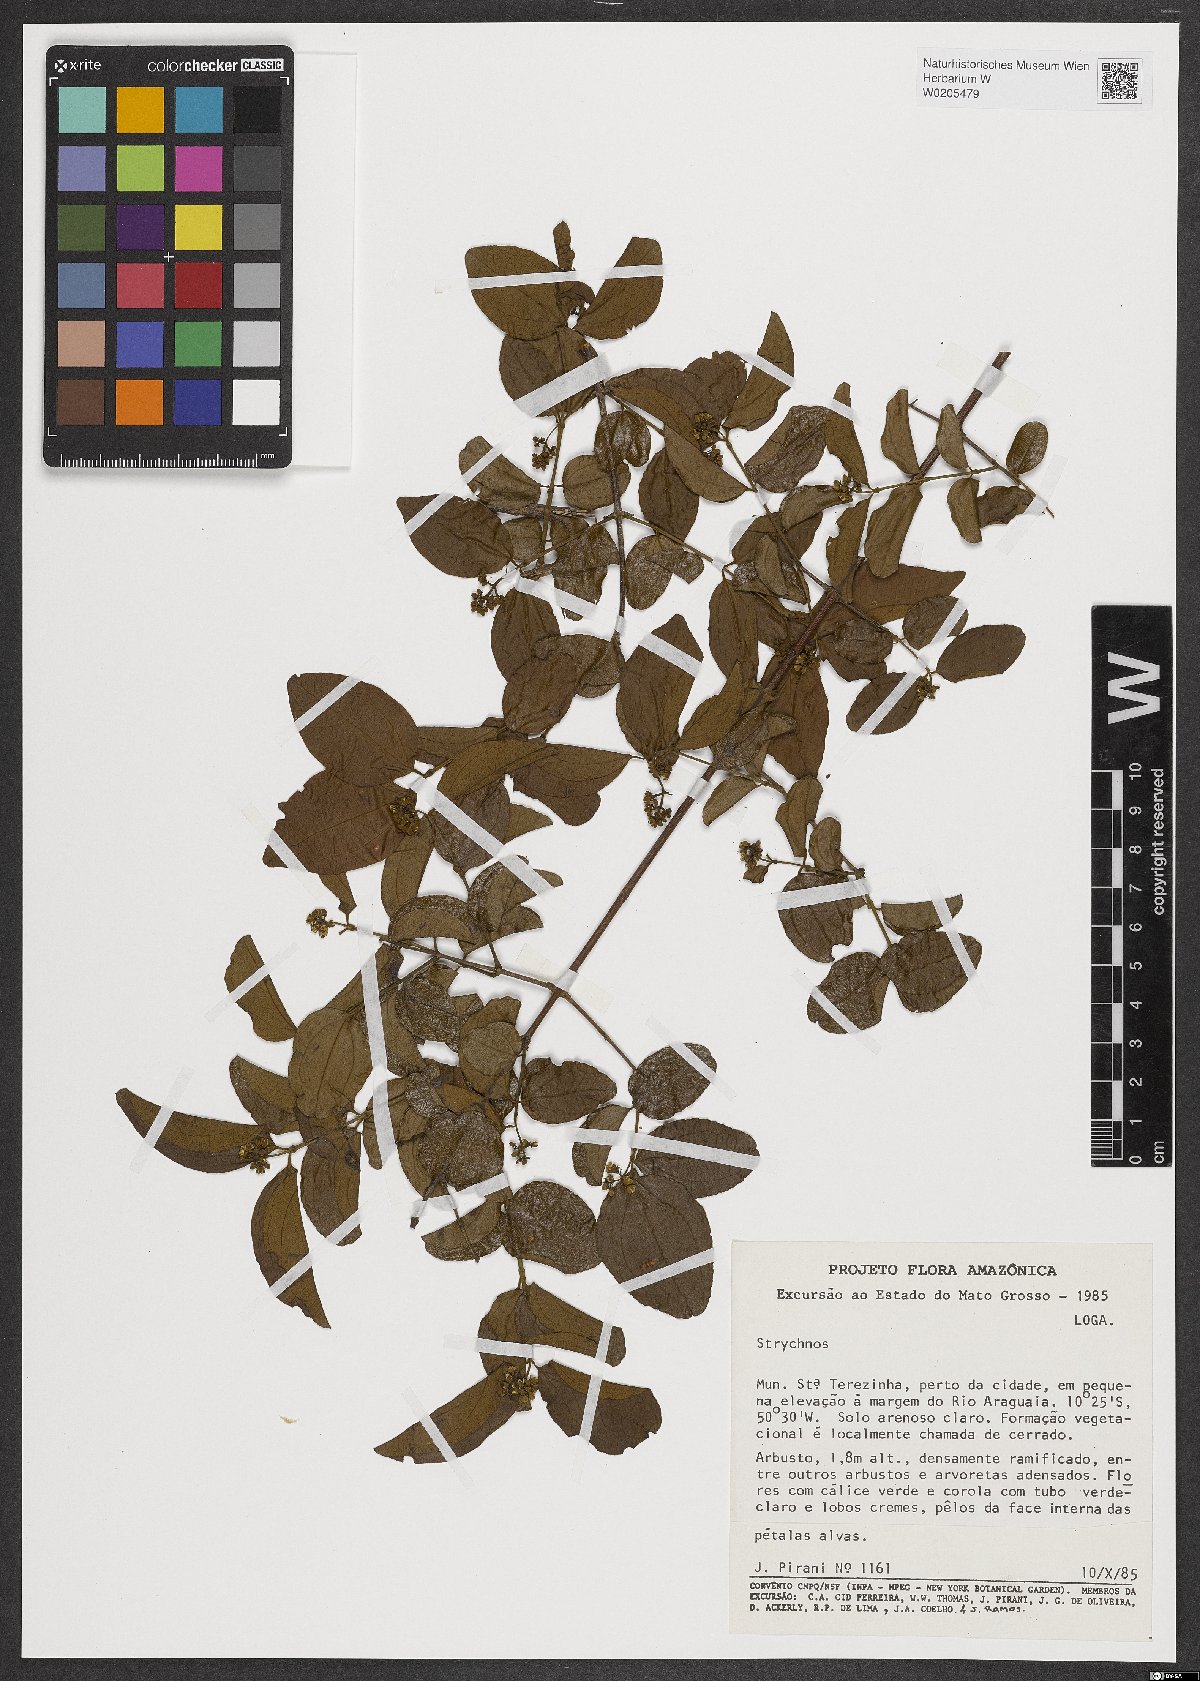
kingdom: Plantae
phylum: Tracheophyta
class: Magnoliopsida
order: Gentianales
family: Loganiaceae
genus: Strychnos
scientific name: Strychnos
